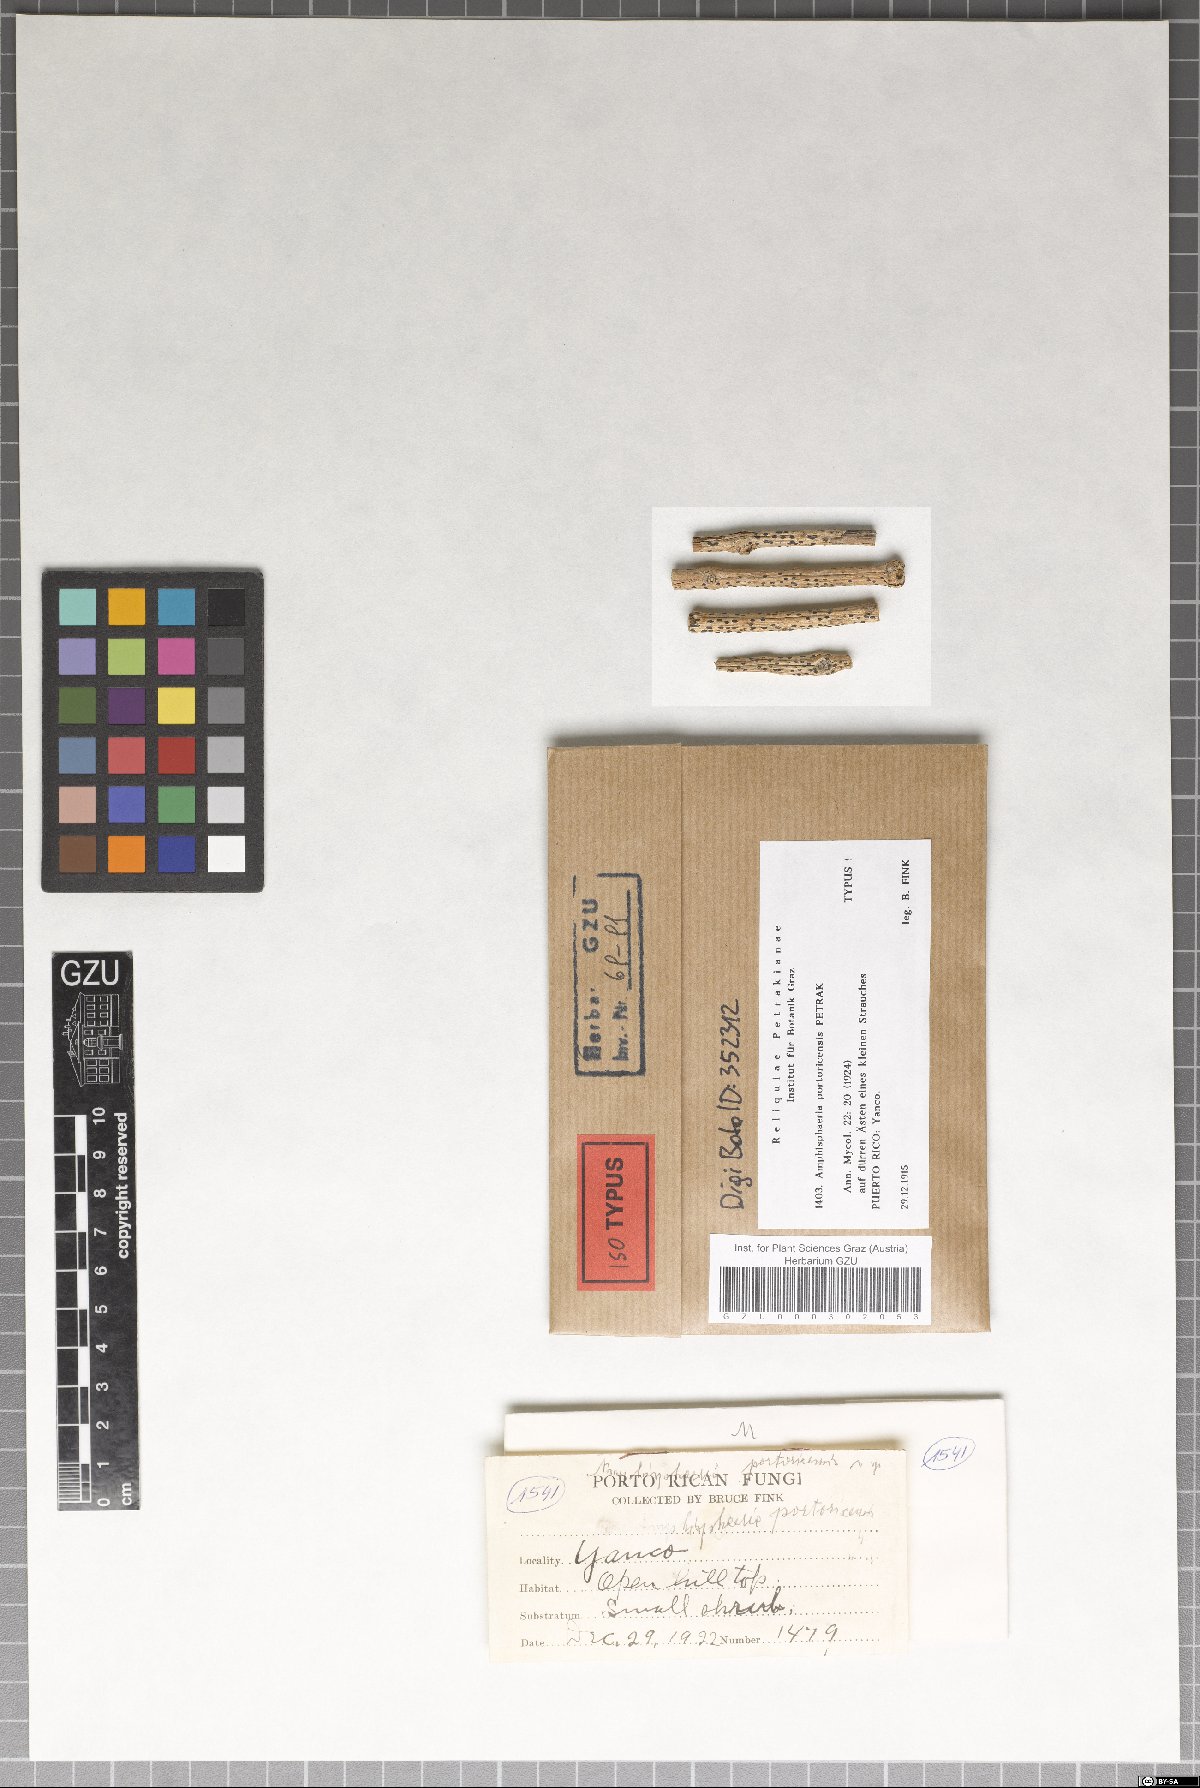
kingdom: Fungi
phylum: Ascomycota
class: Eurotiomycetes
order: Pyrenulales
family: Pyrenulaceae
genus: Granulopyrenis
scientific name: Granulopyrenis portoricensis
